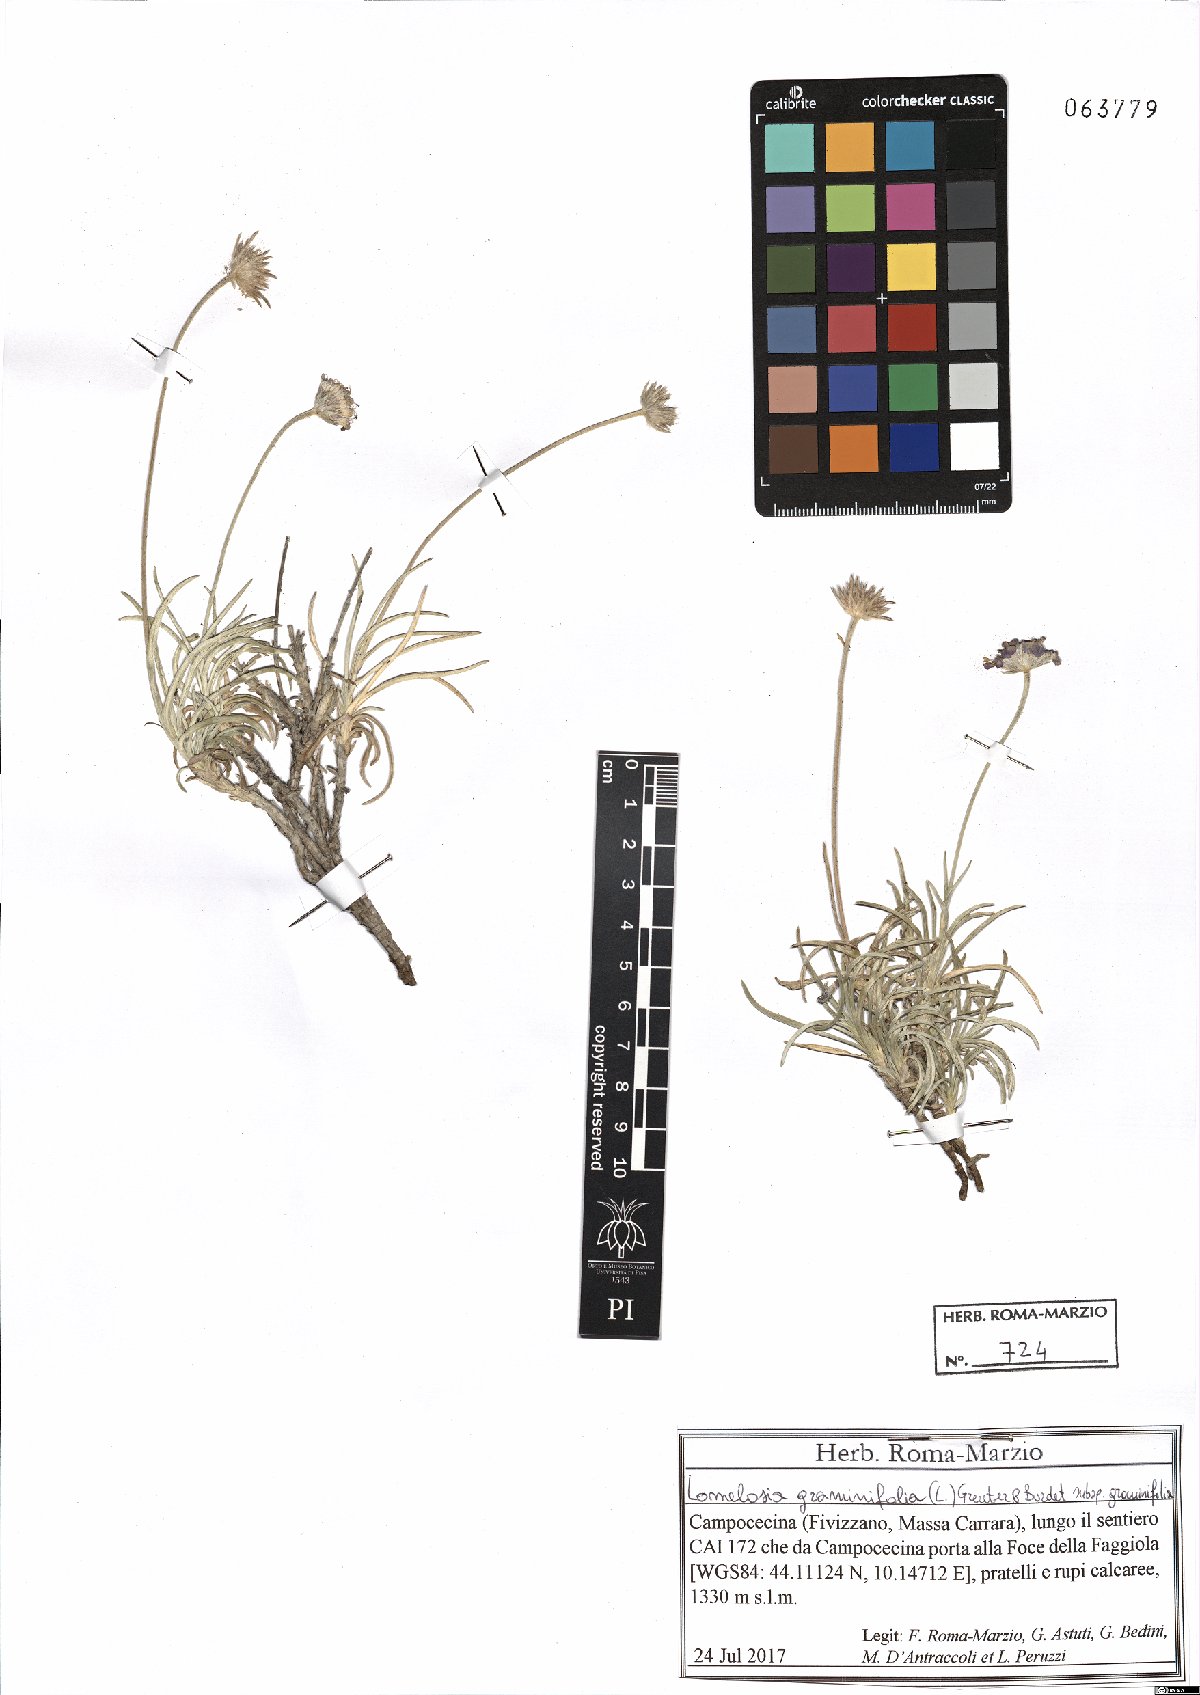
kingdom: Plantae
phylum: Tracheophyta
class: Magnoliopsida
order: Dipsacales
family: Caprifoliaceae
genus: Lomelosia
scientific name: Lomelosia graminifolia
